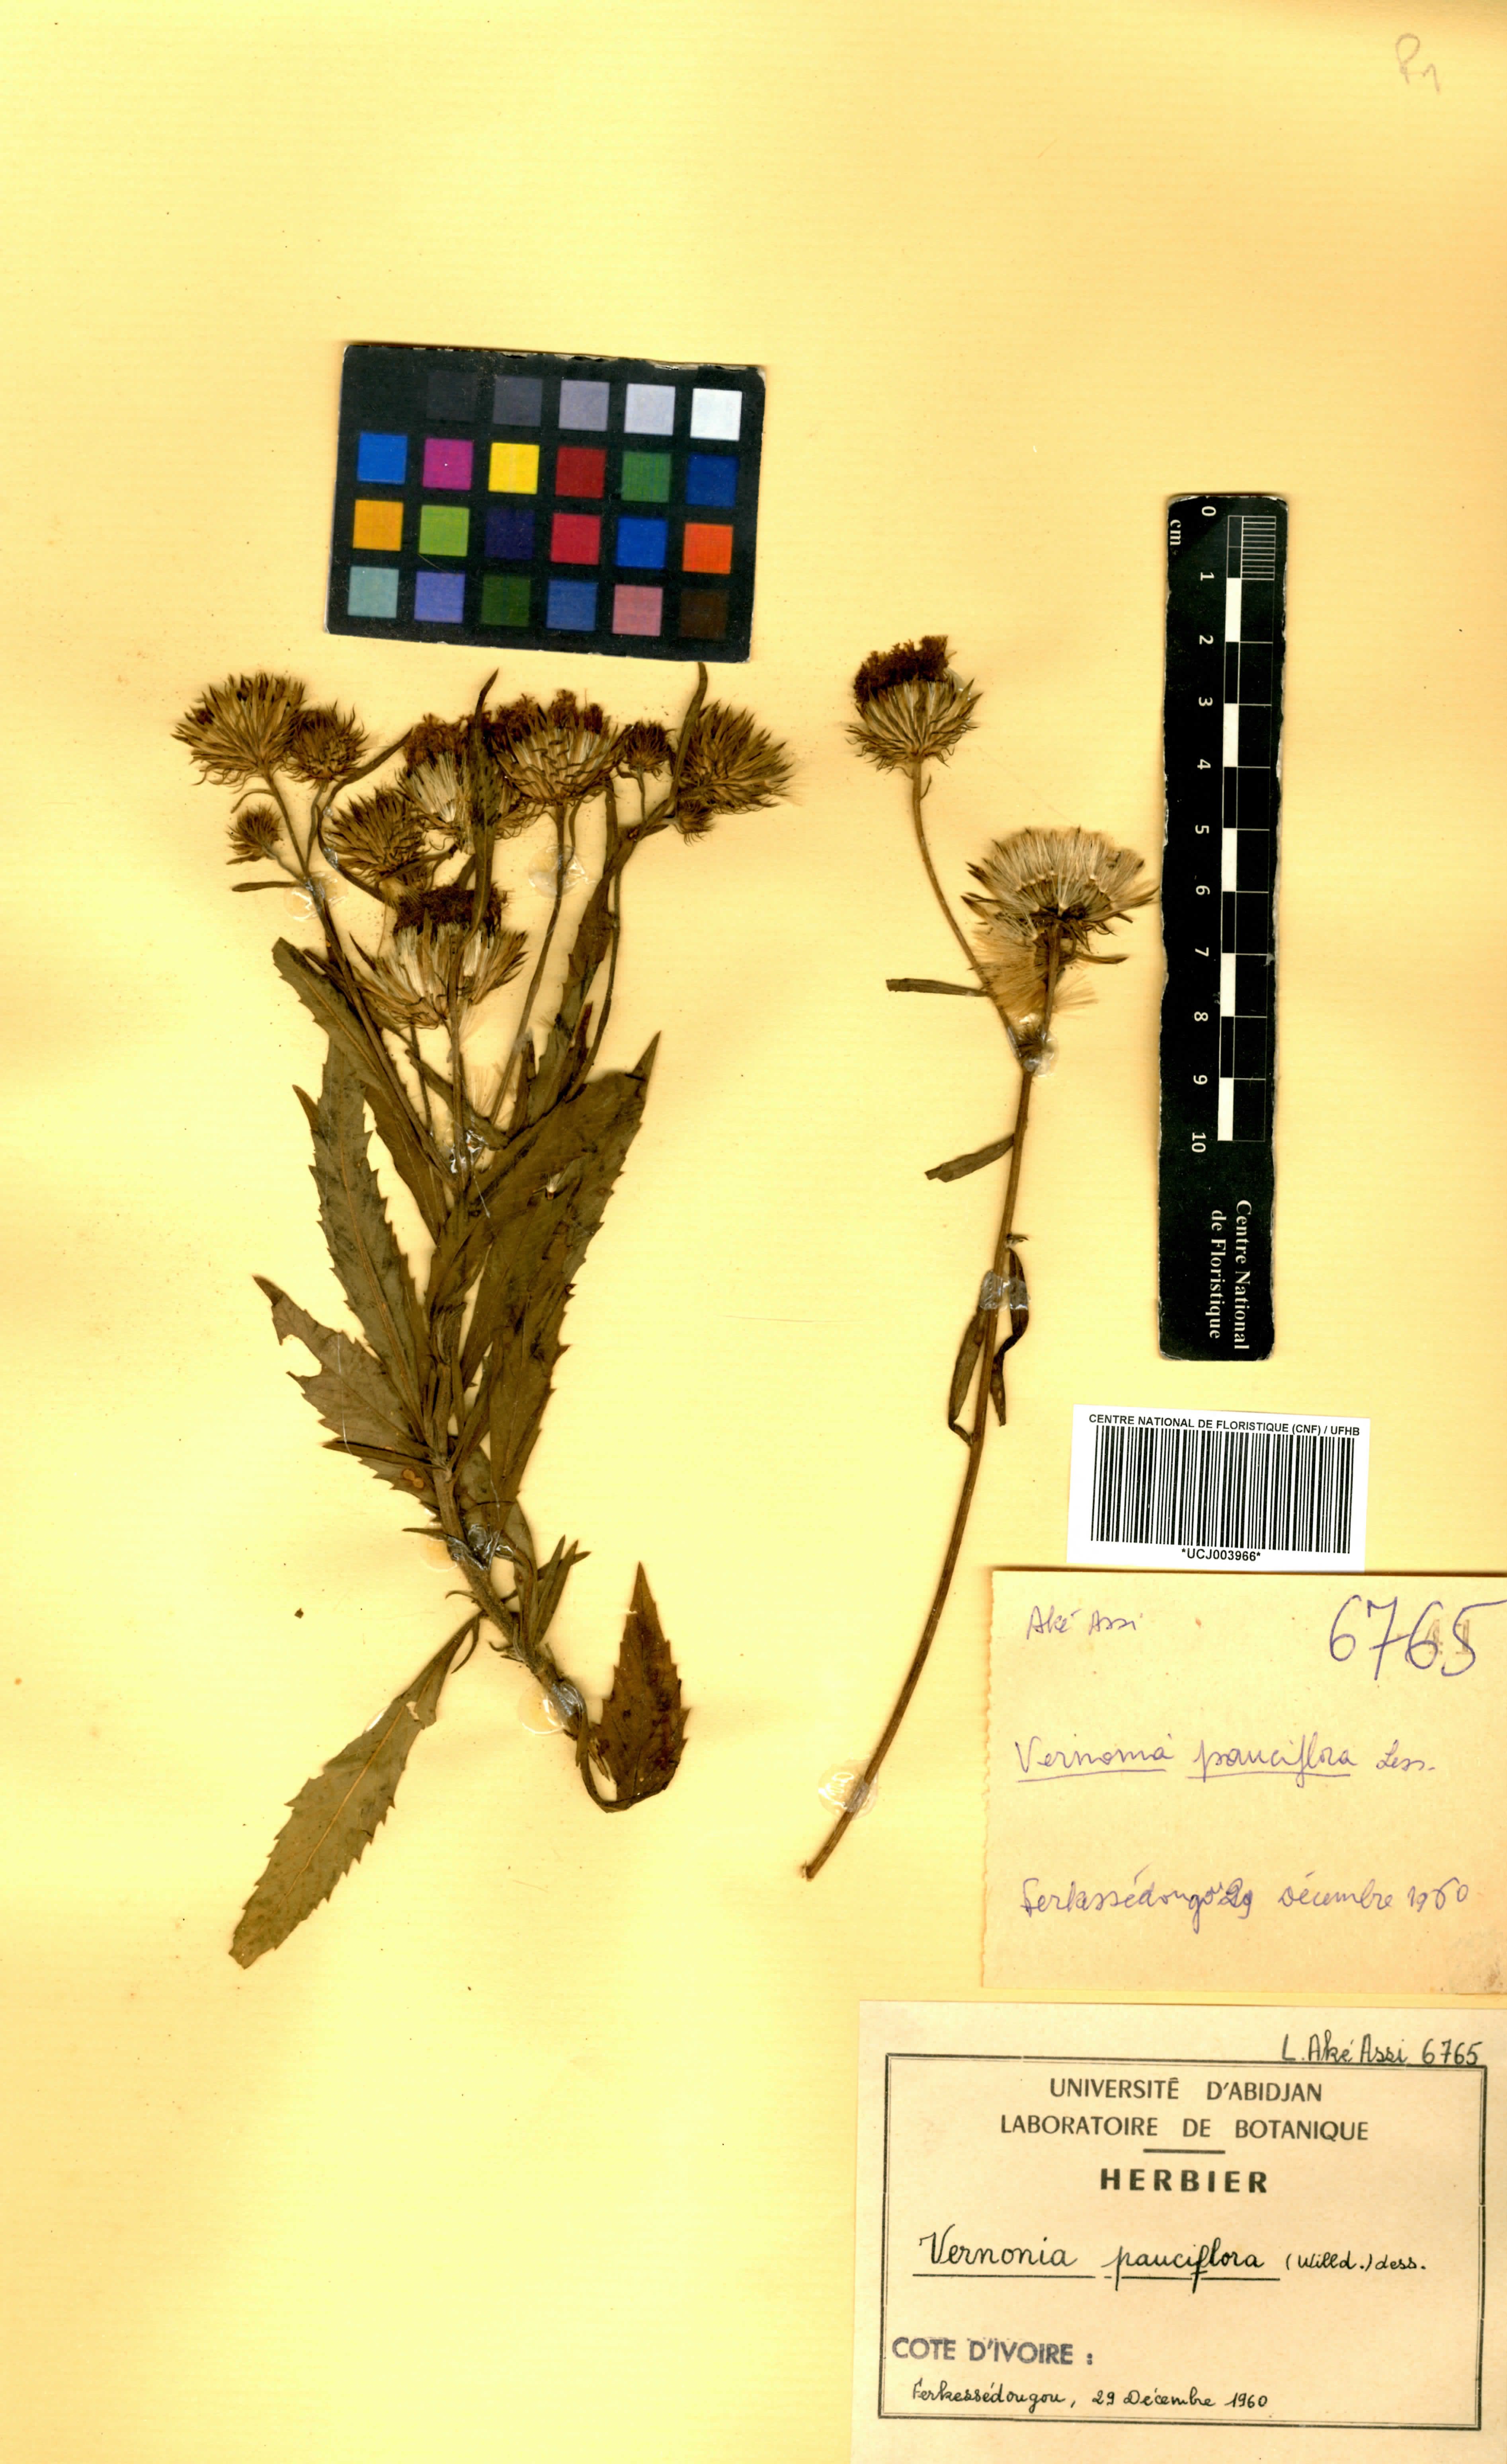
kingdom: Plantae
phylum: Tracheophyta
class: Magnoliopsida
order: Asterales
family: Asteraceae
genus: Vernonia
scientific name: Vernonia galamensis
